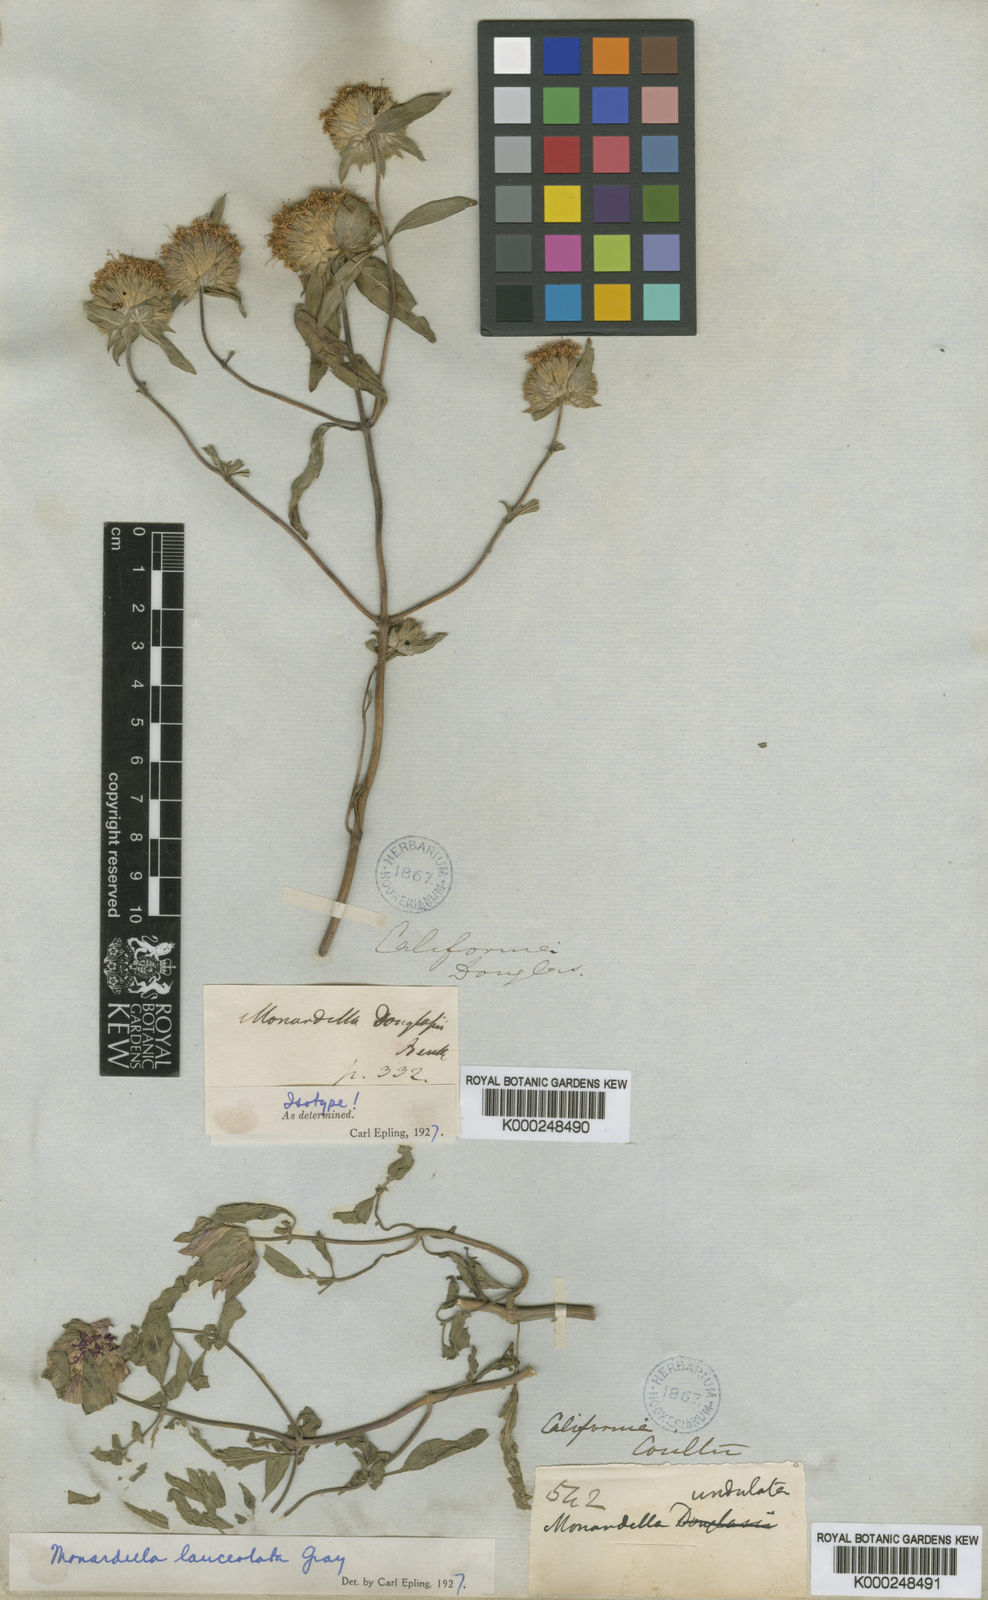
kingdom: Plantae
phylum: Tracheophyta
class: Magnoliopsida
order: Lamiales
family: Lamiaceae
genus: Monardella
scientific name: Monardella douglasii
